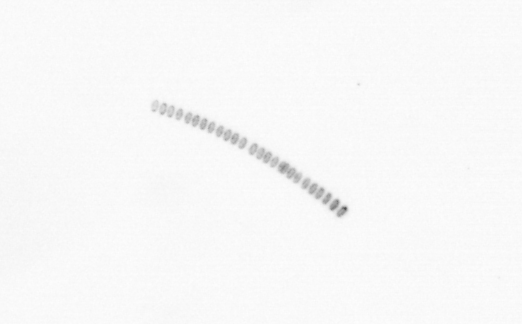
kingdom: Chromista
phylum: Ochrophyta
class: Bacillariophyceae
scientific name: Bacillariophyceae
